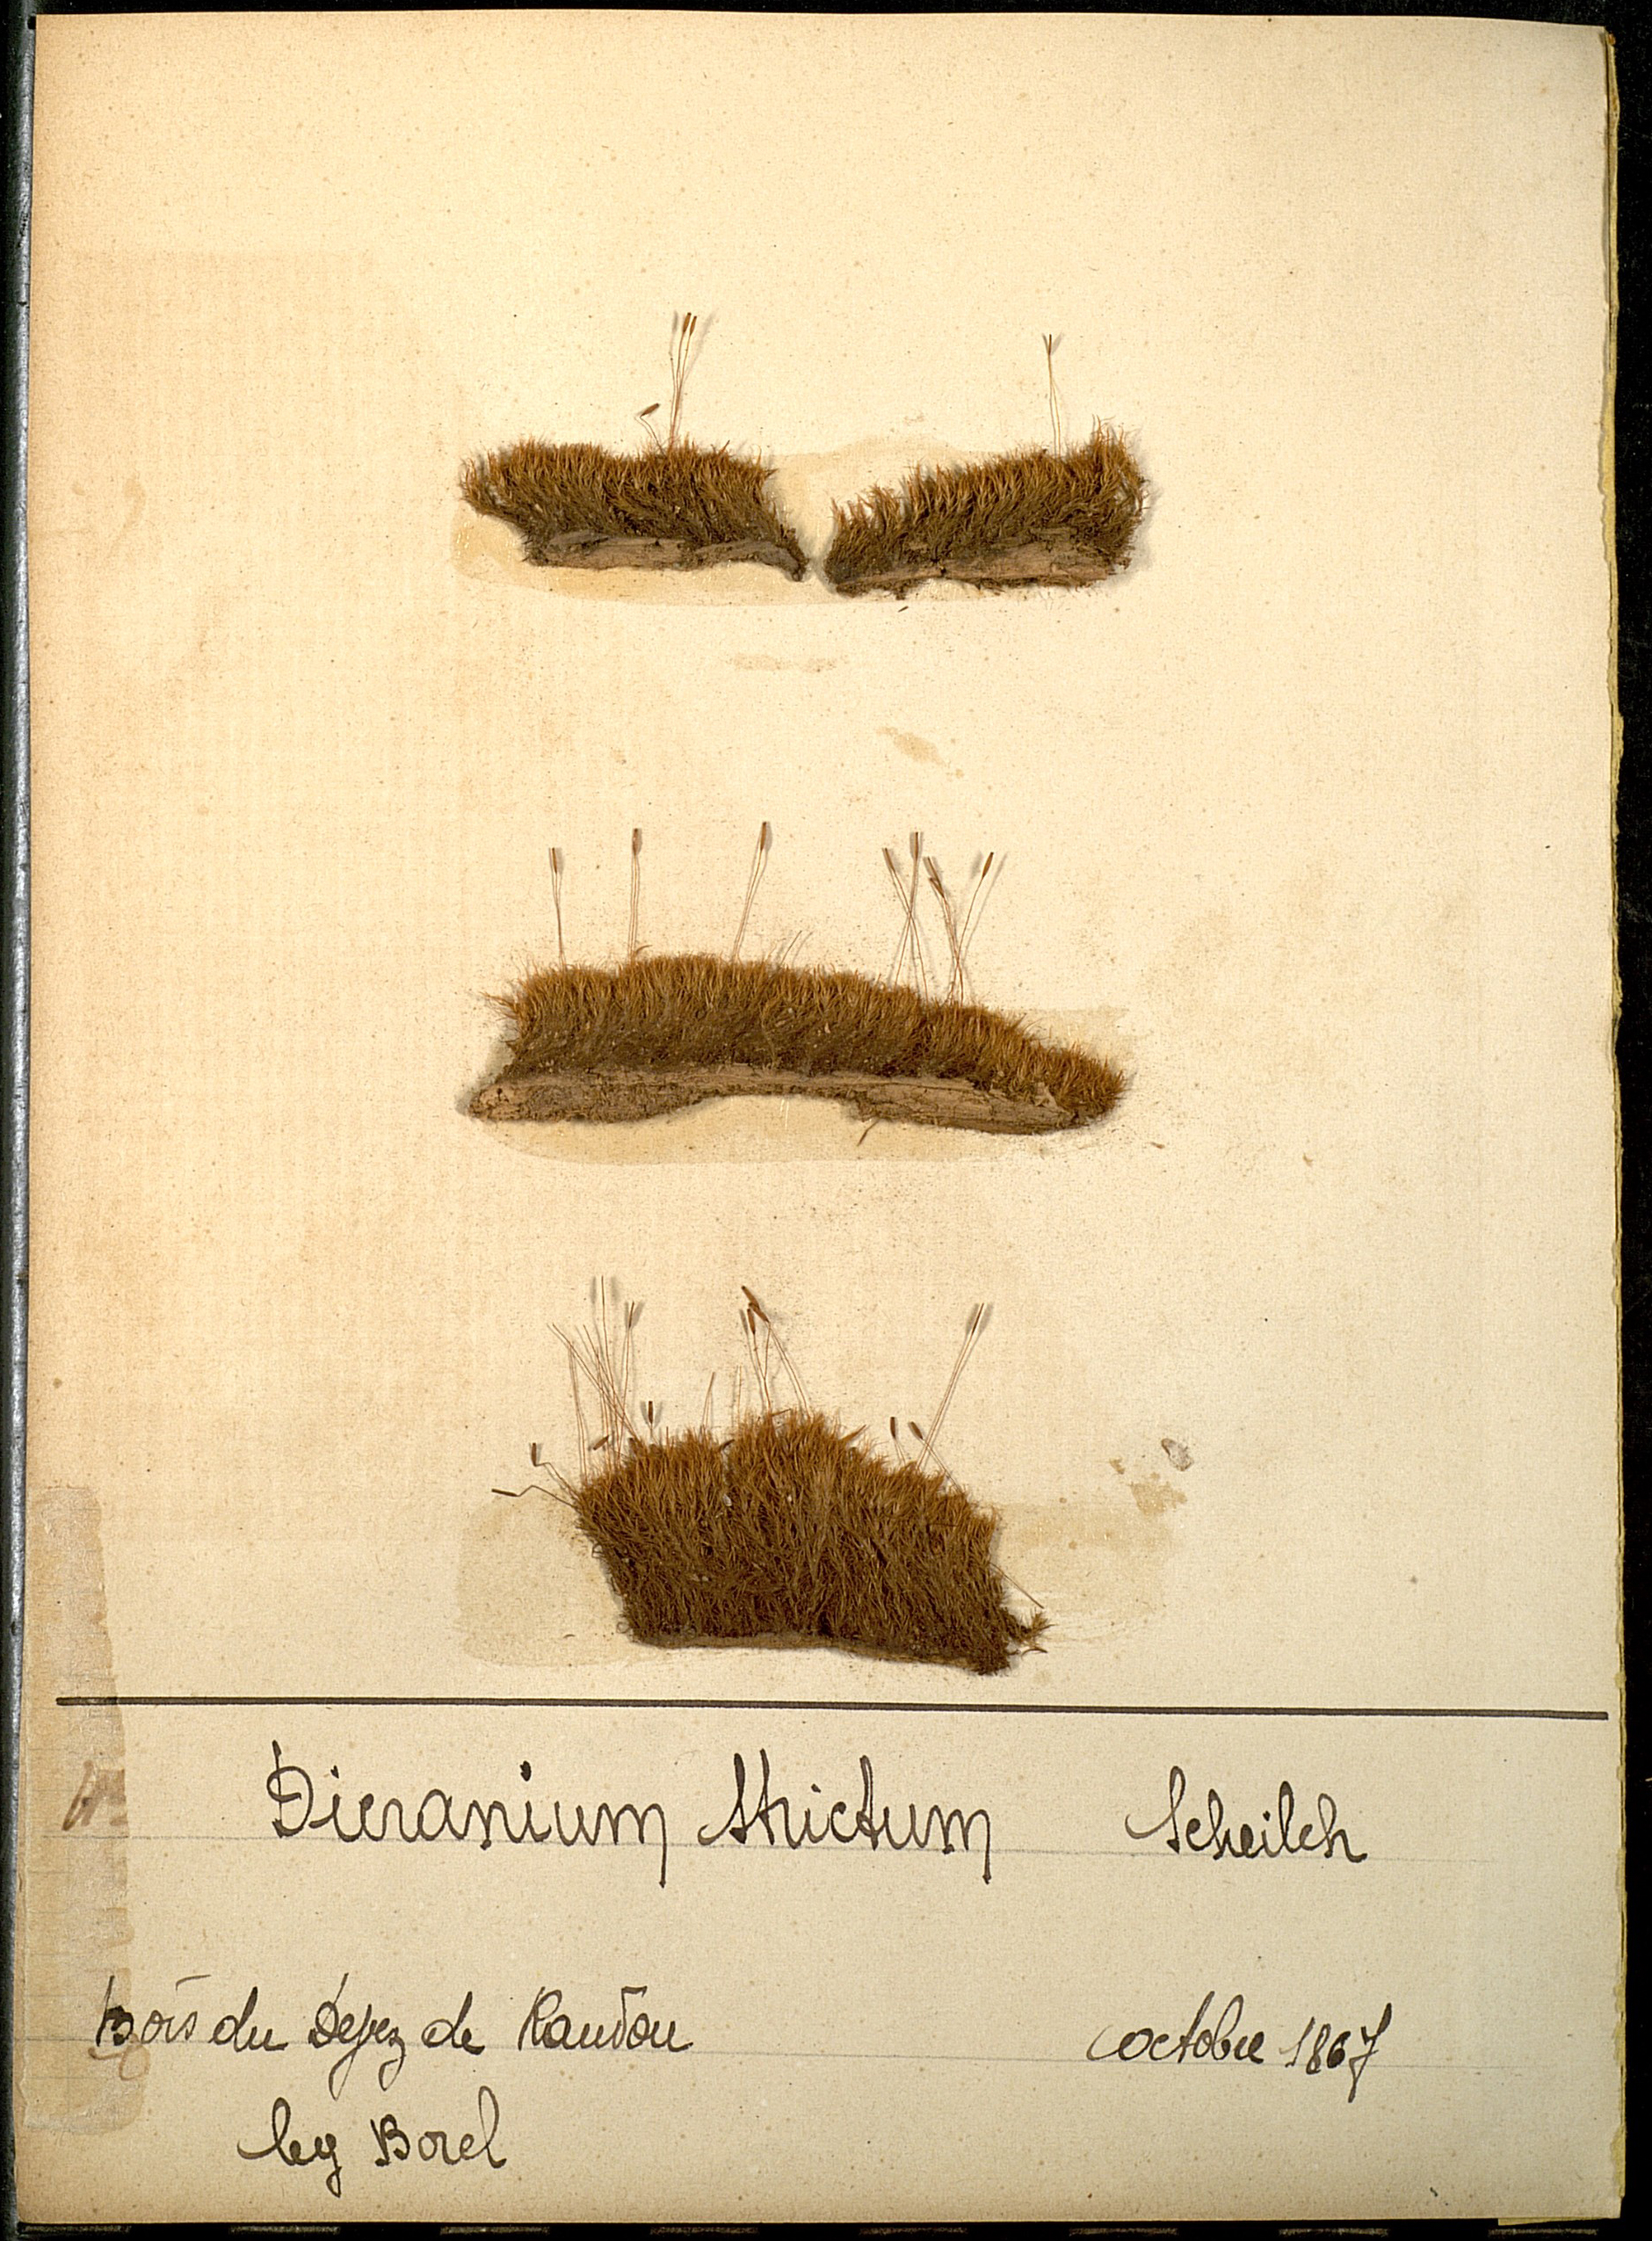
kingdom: Plantae
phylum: Bryophyta
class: Bryopsida
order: Dicranales
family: Dicranaceae
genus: Orthodicranum
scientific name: Orthodicranum tauricum
